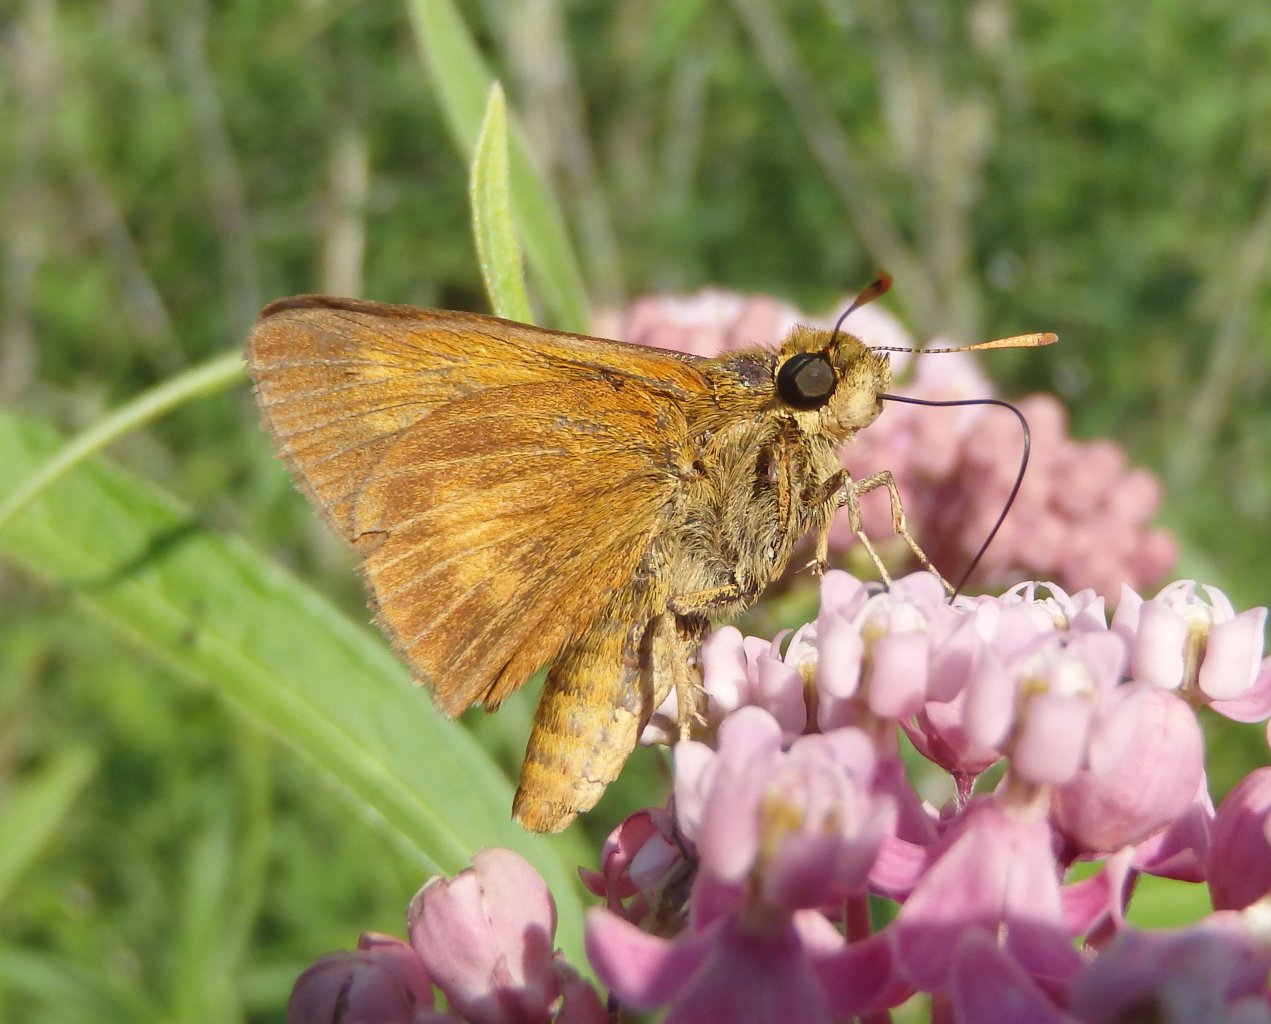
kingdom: Animalia
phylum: Arthropoda
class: Insecta
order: Lepidoptera
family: Hesperiidae
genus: Euphyes
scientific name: Euphyes conspicua
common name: Black Dash
